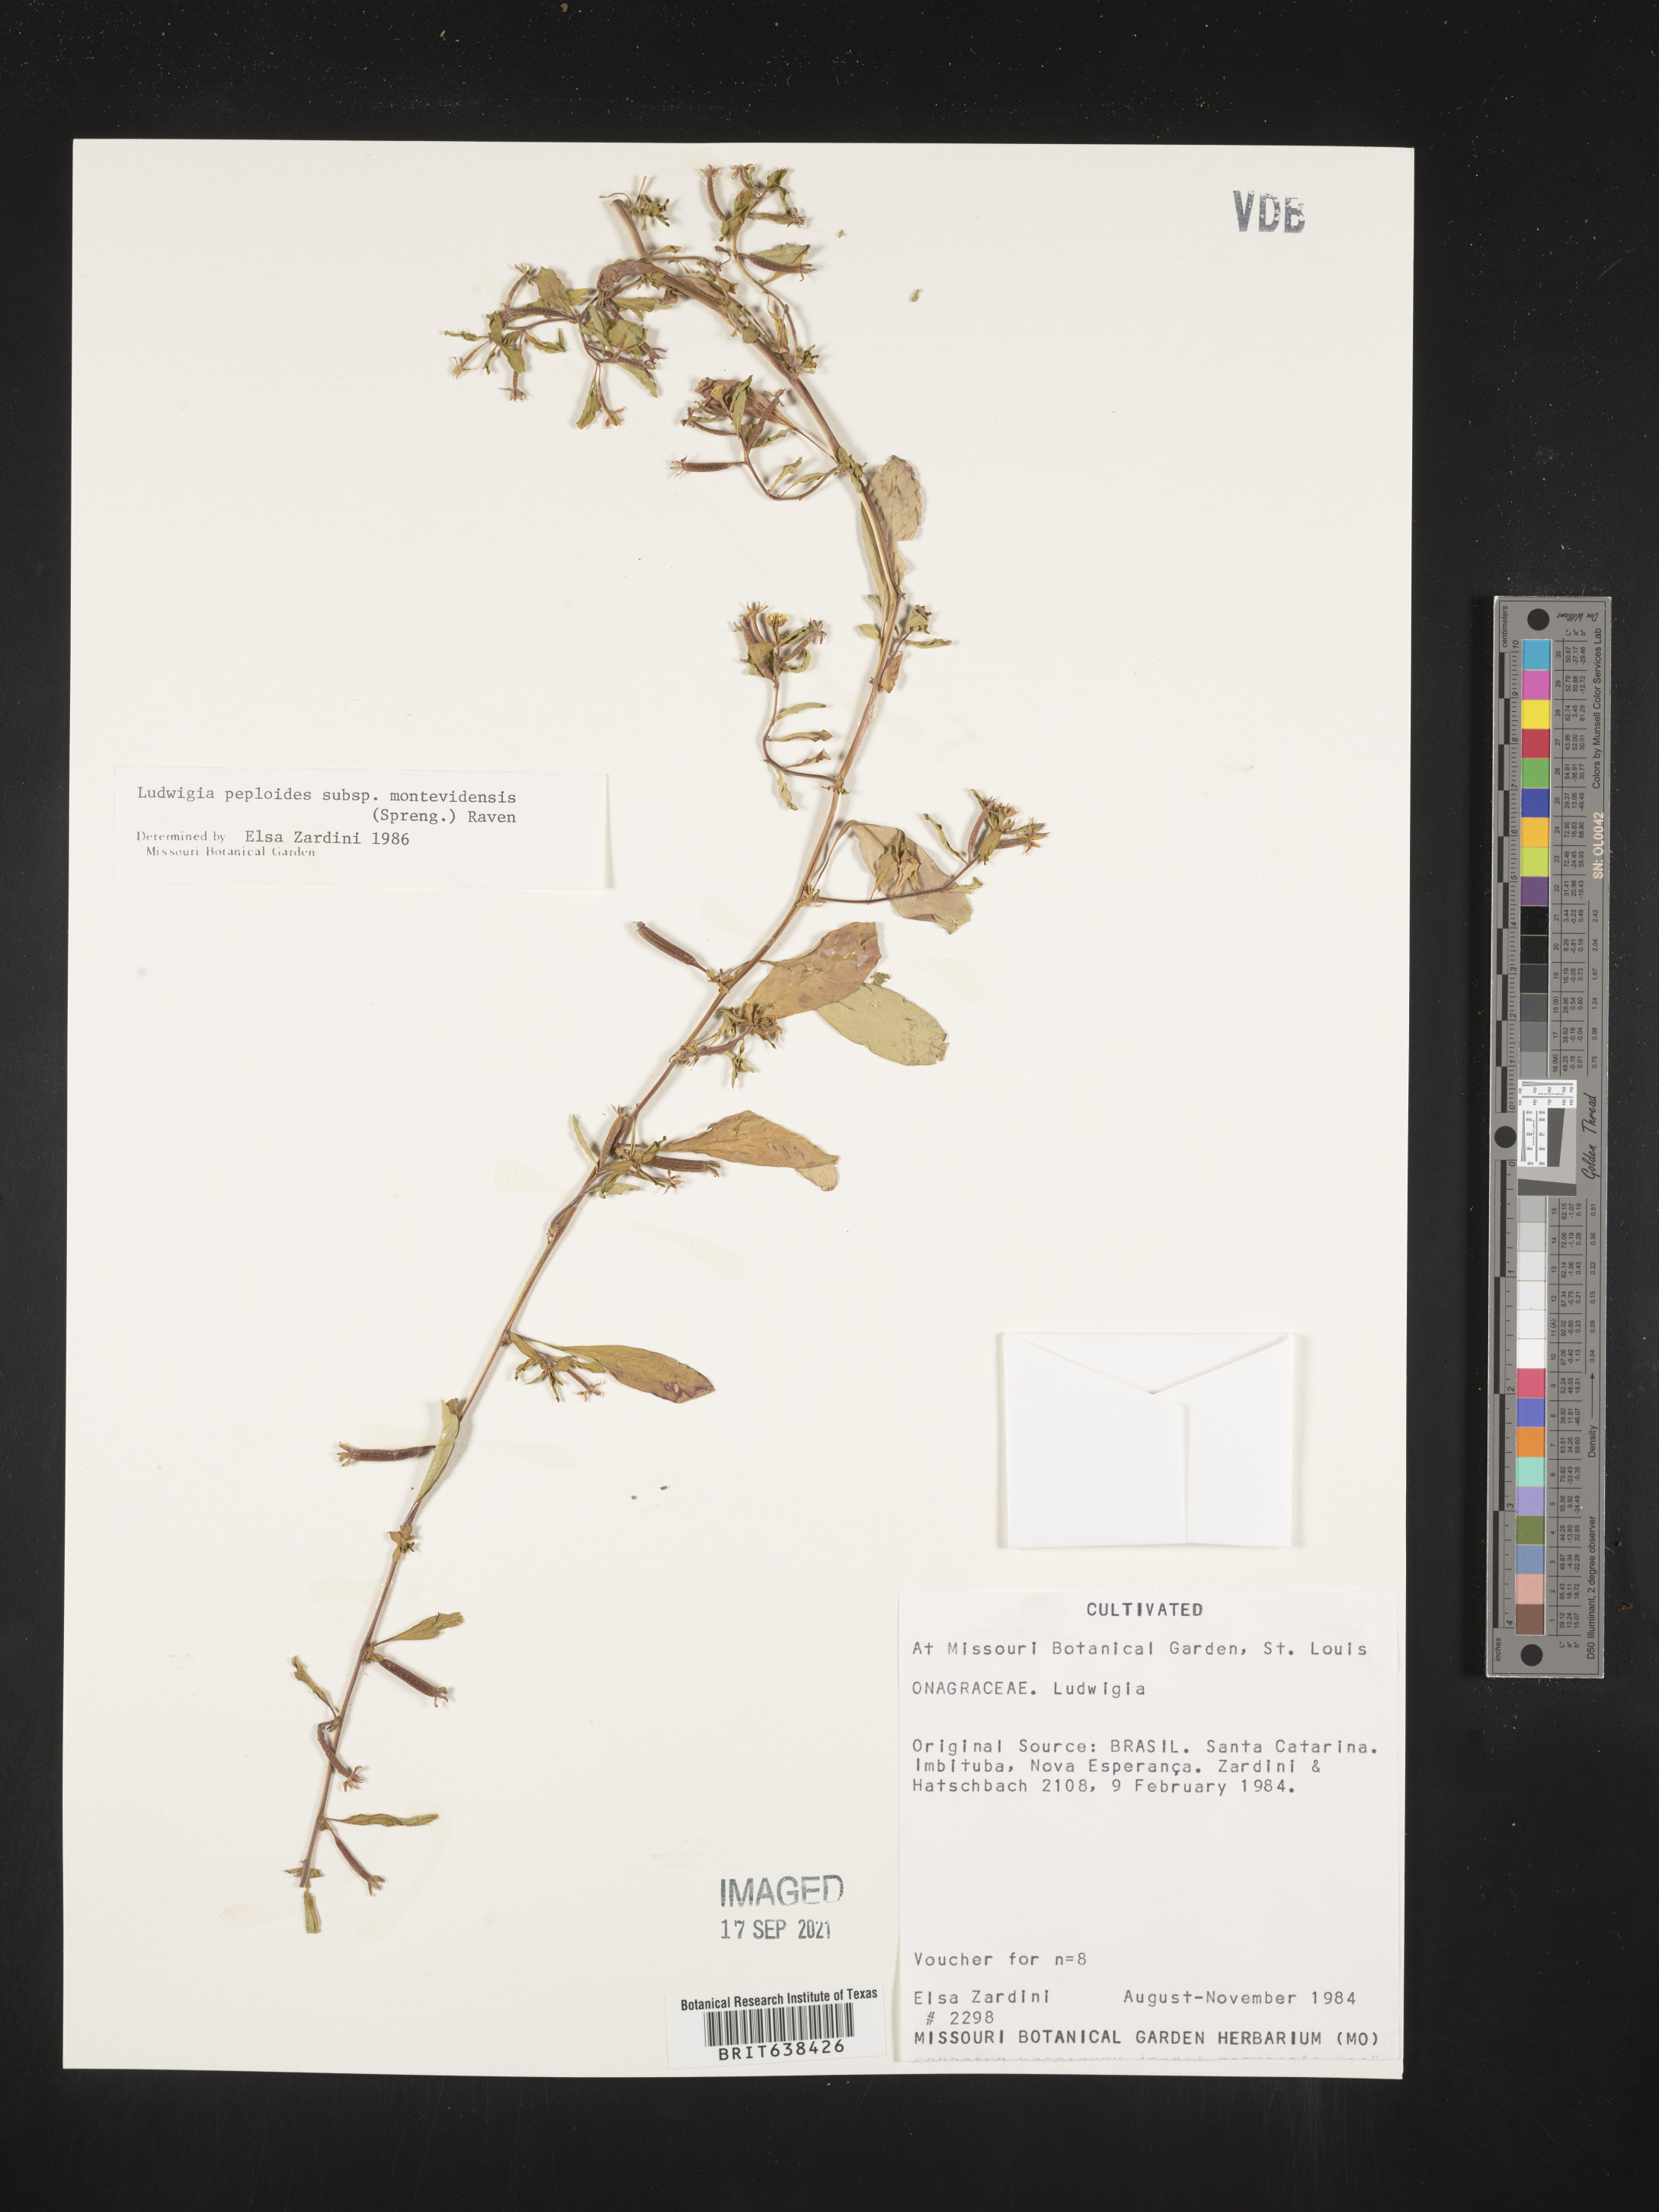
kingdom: Plantae
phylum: Tracheophyta
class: Magnoliopsida
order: Myrtales
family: Onagraceae
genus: Ludwigia
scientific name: Ludwigia
